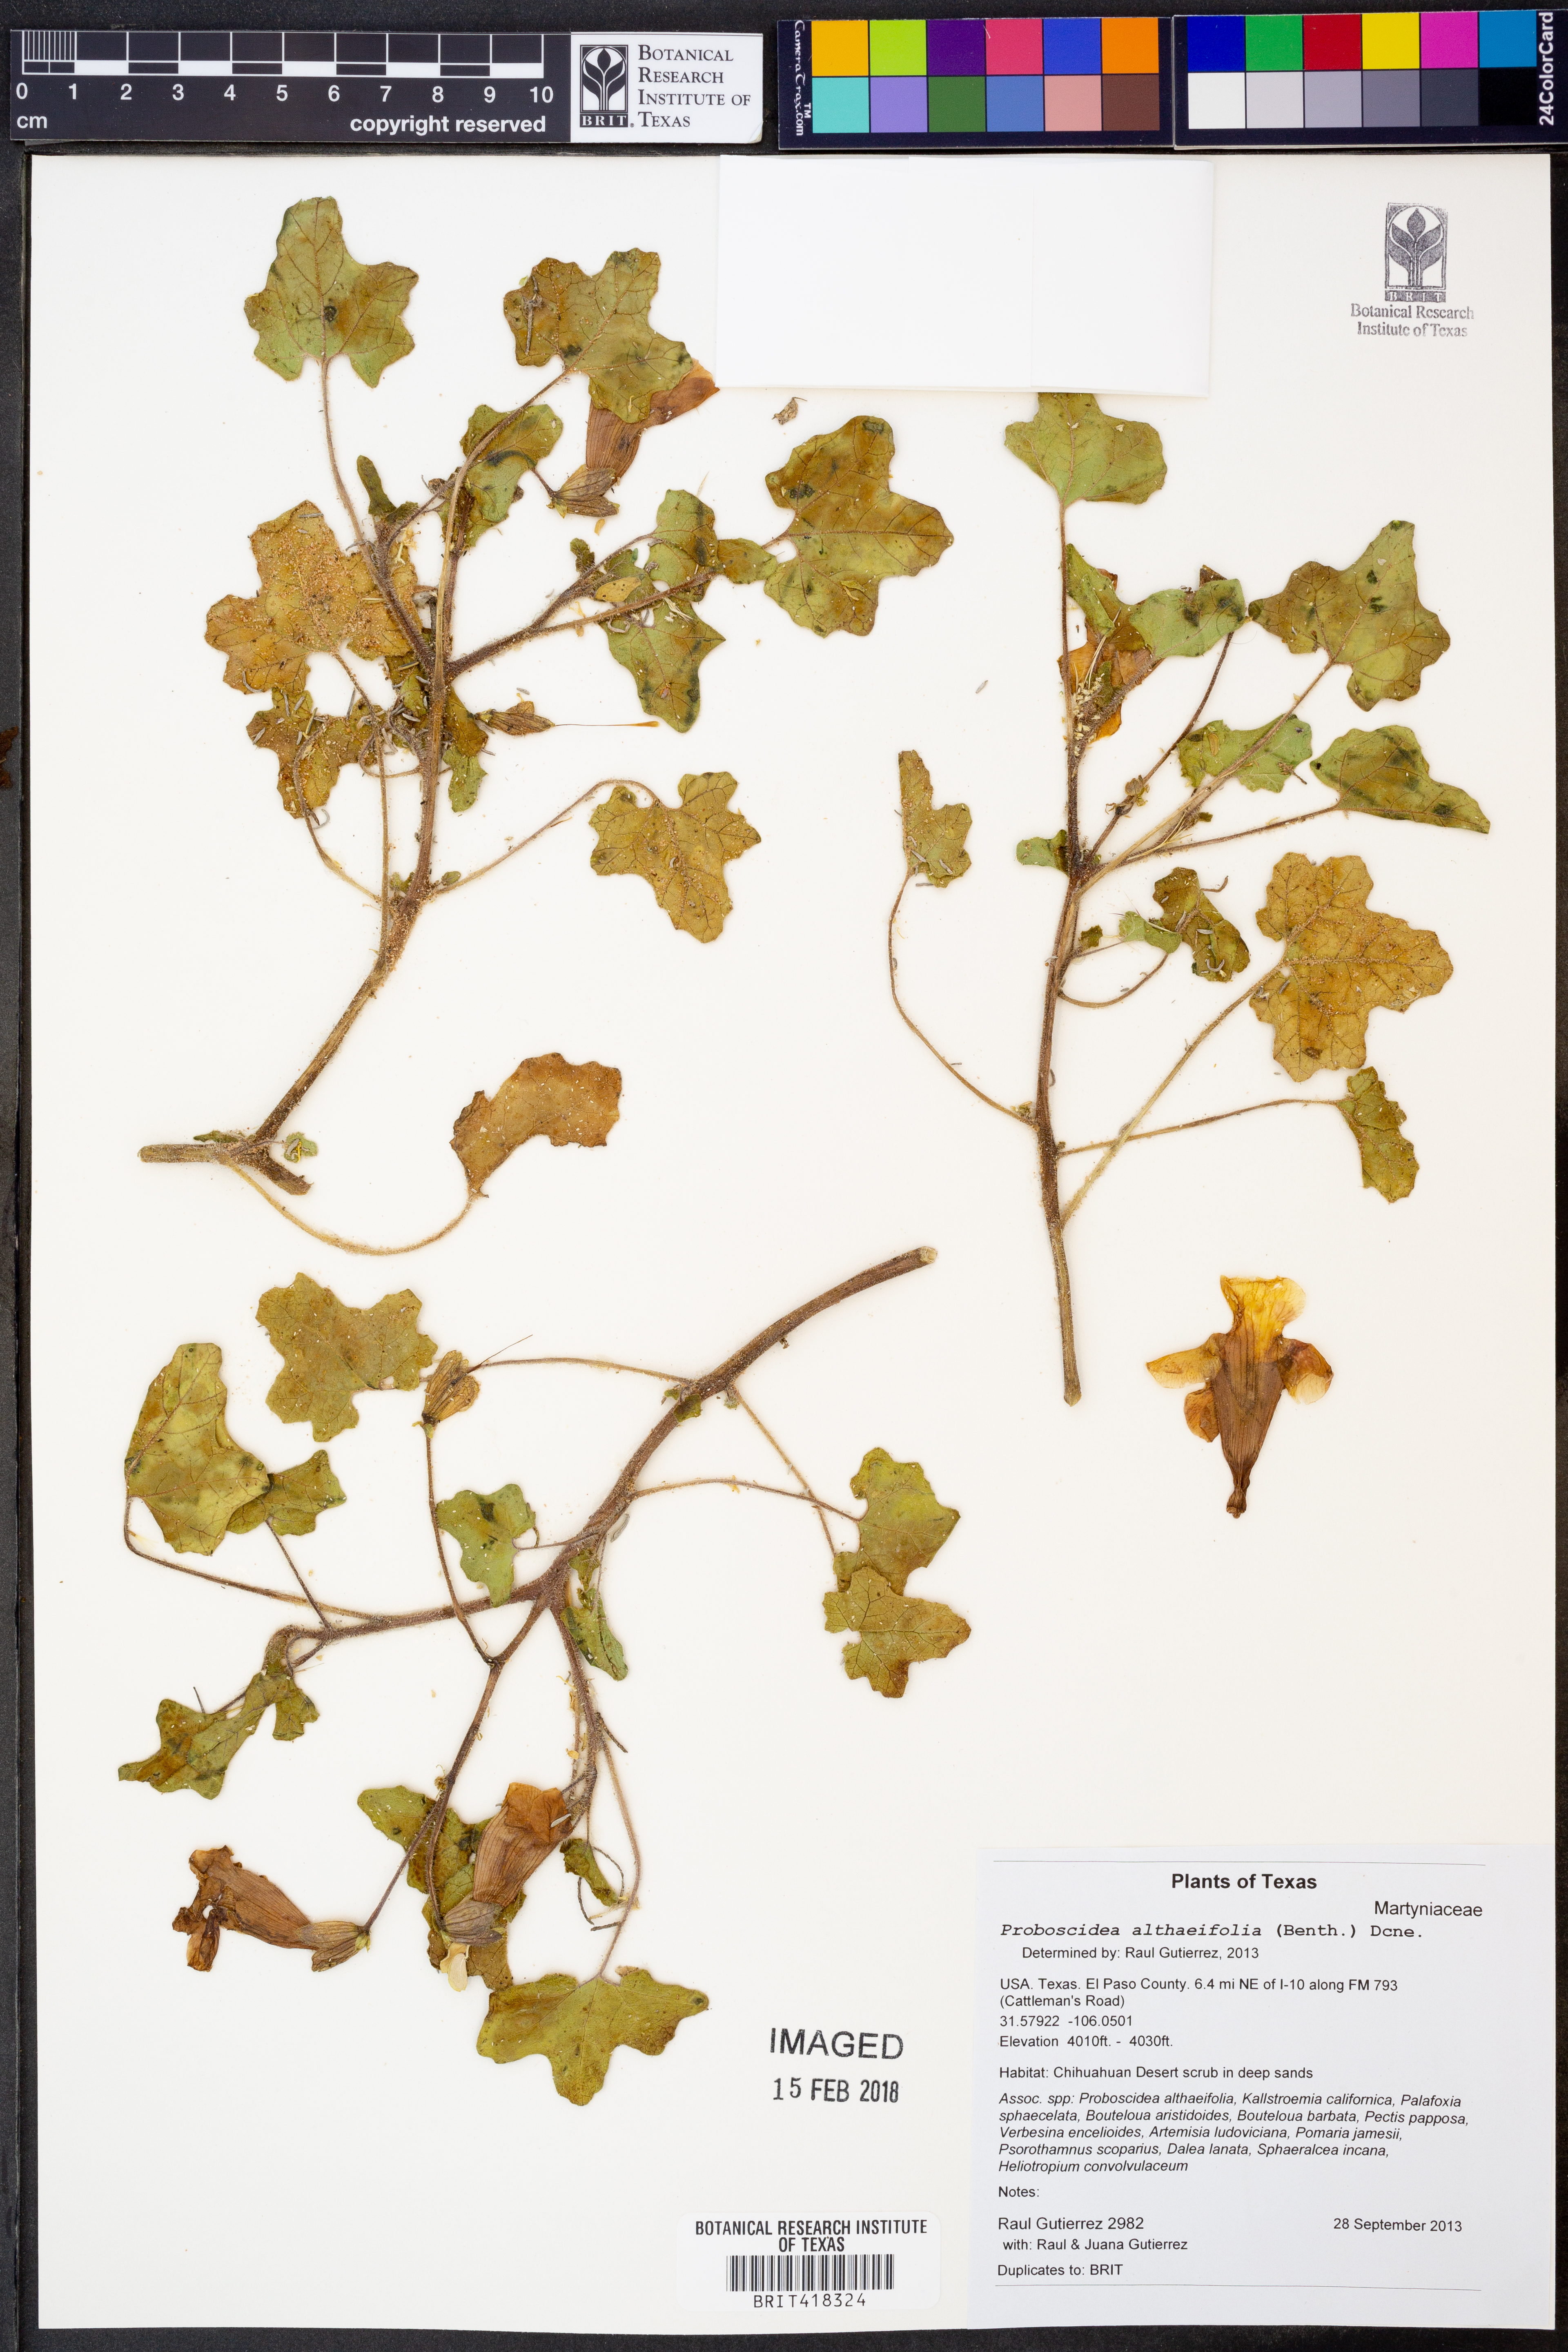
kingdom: Plantae
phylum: Tracheophyta
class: Magnoliopsida
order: Lamiales
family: Martyniaceae
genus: Proboscidea
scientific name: Proboscidea althaeifolia
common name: Desert unicorn-plant
